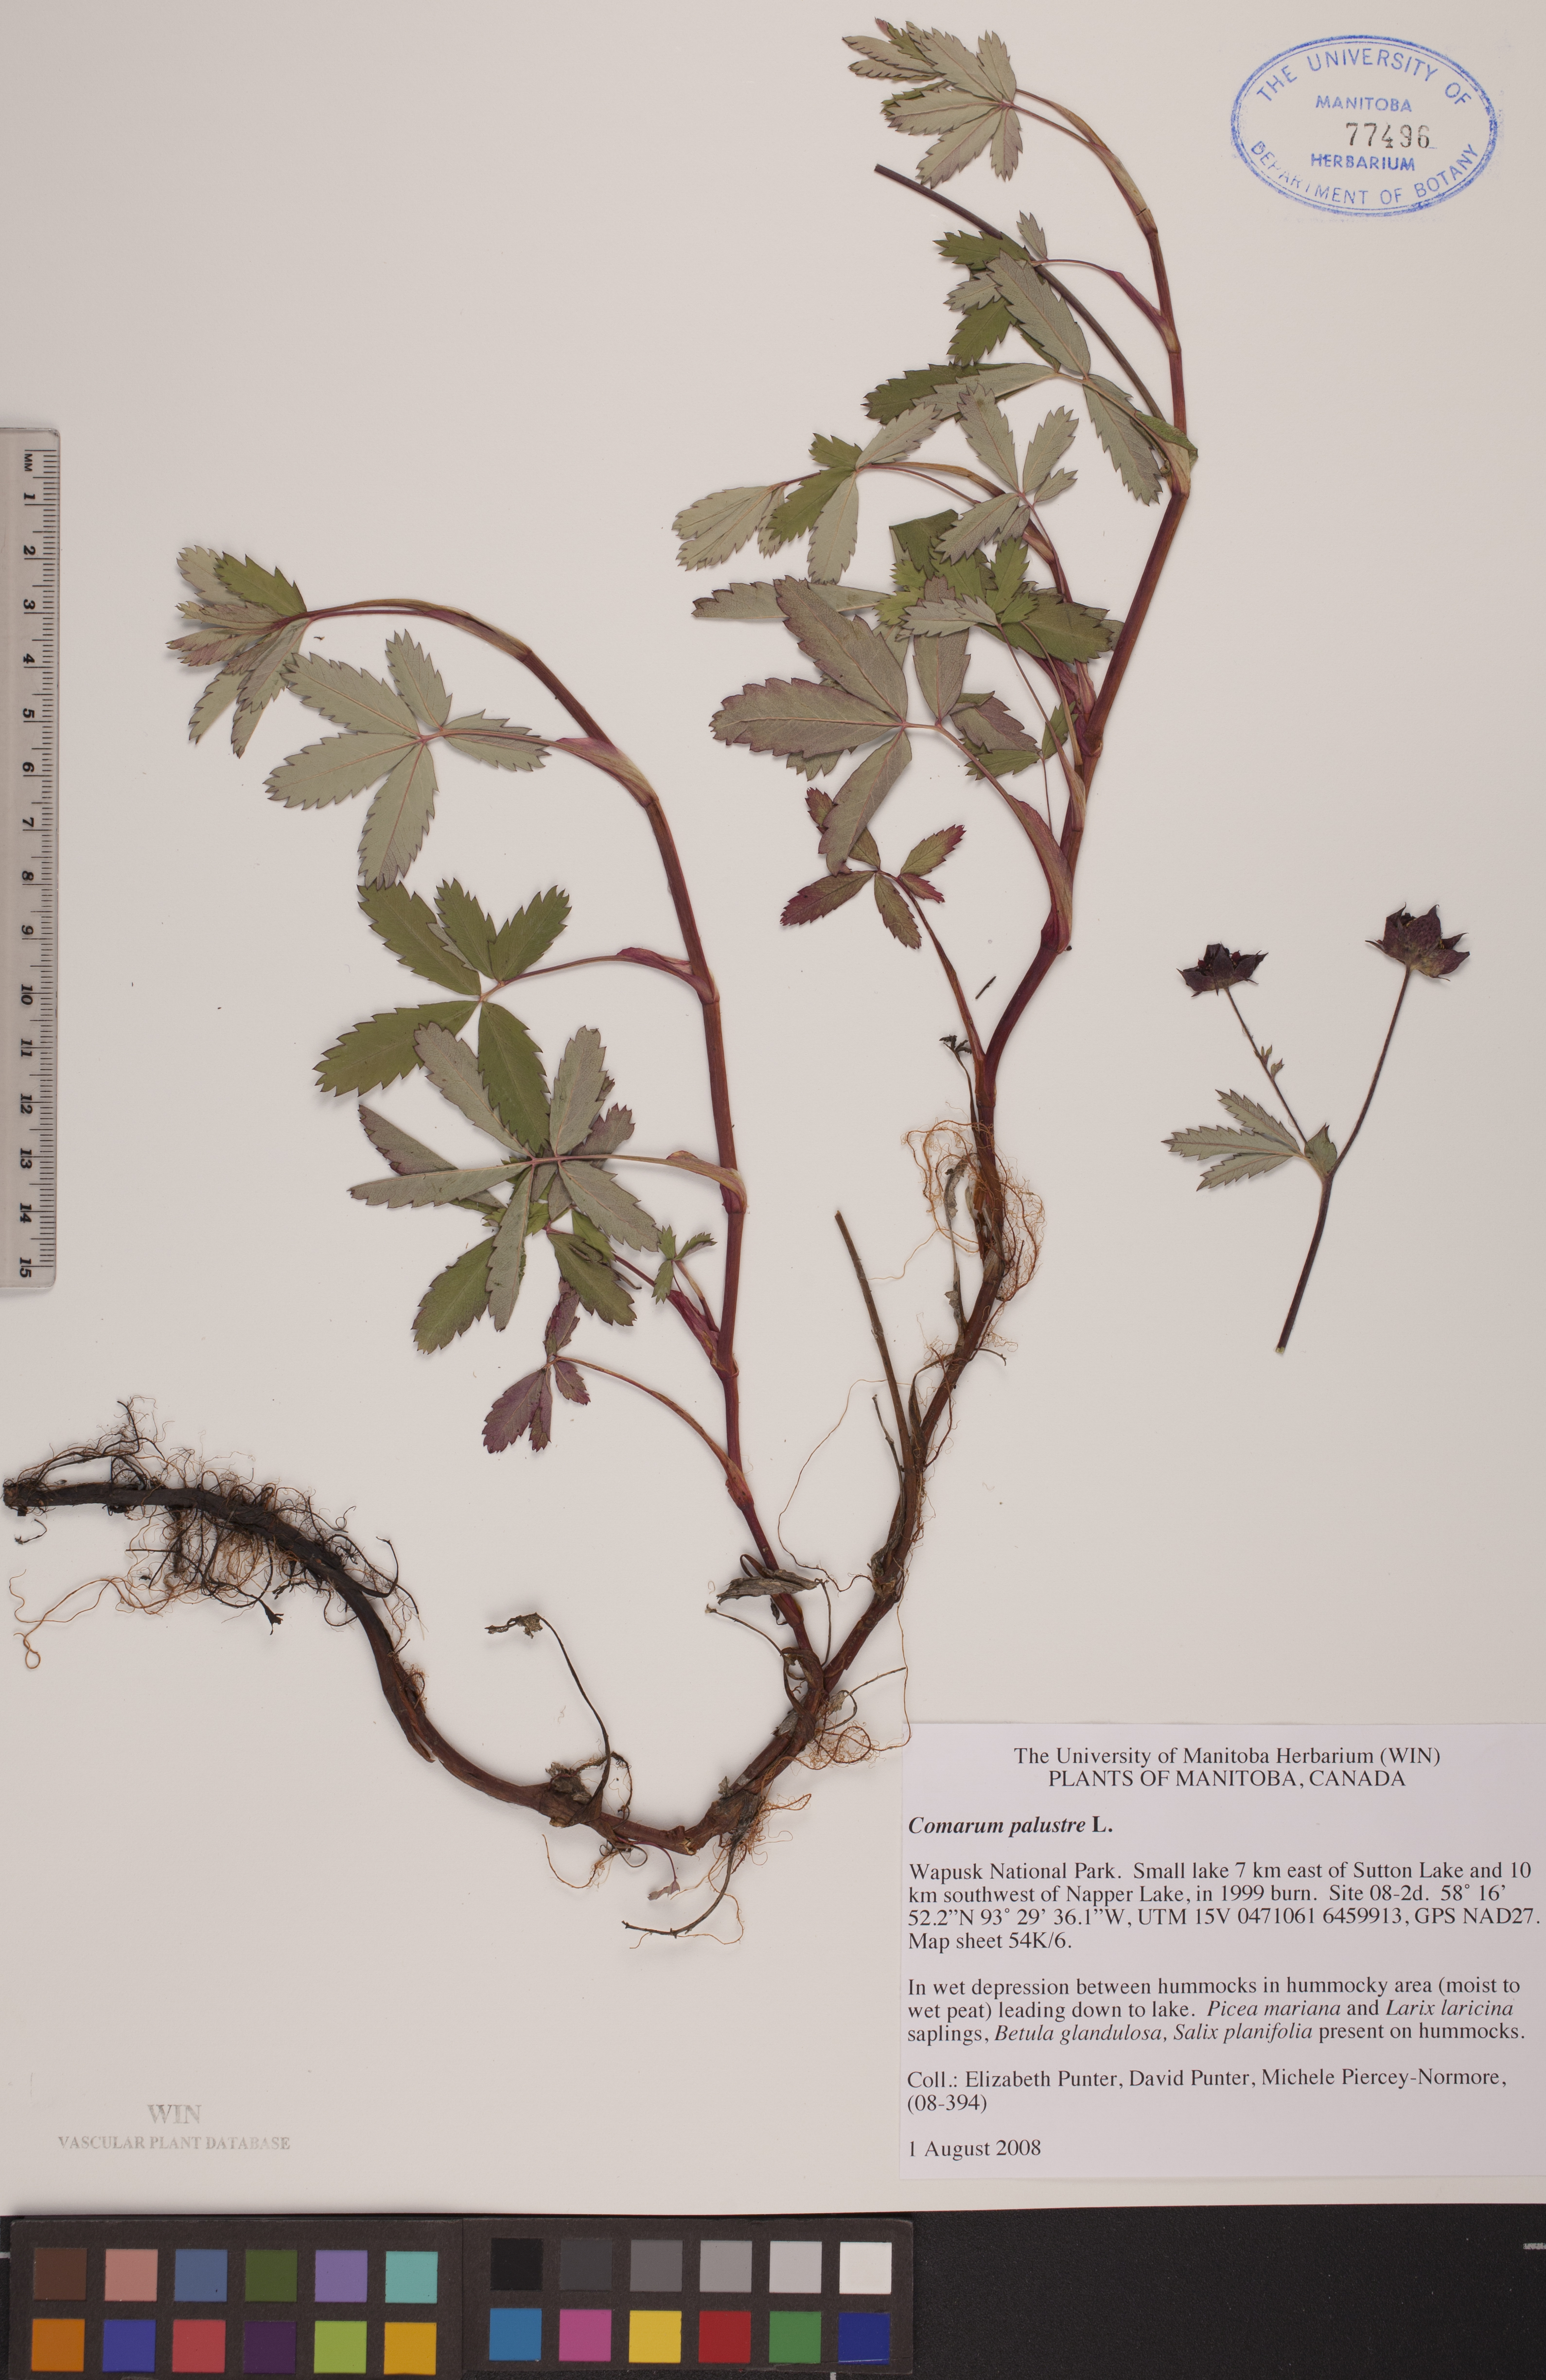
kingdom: Plantae
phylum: Tracheophyta
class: Magnoliopsida
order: Rosales
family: Rosaceae
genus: Comarum
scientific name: Comarum palustre
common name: Marsh cinquefoil
